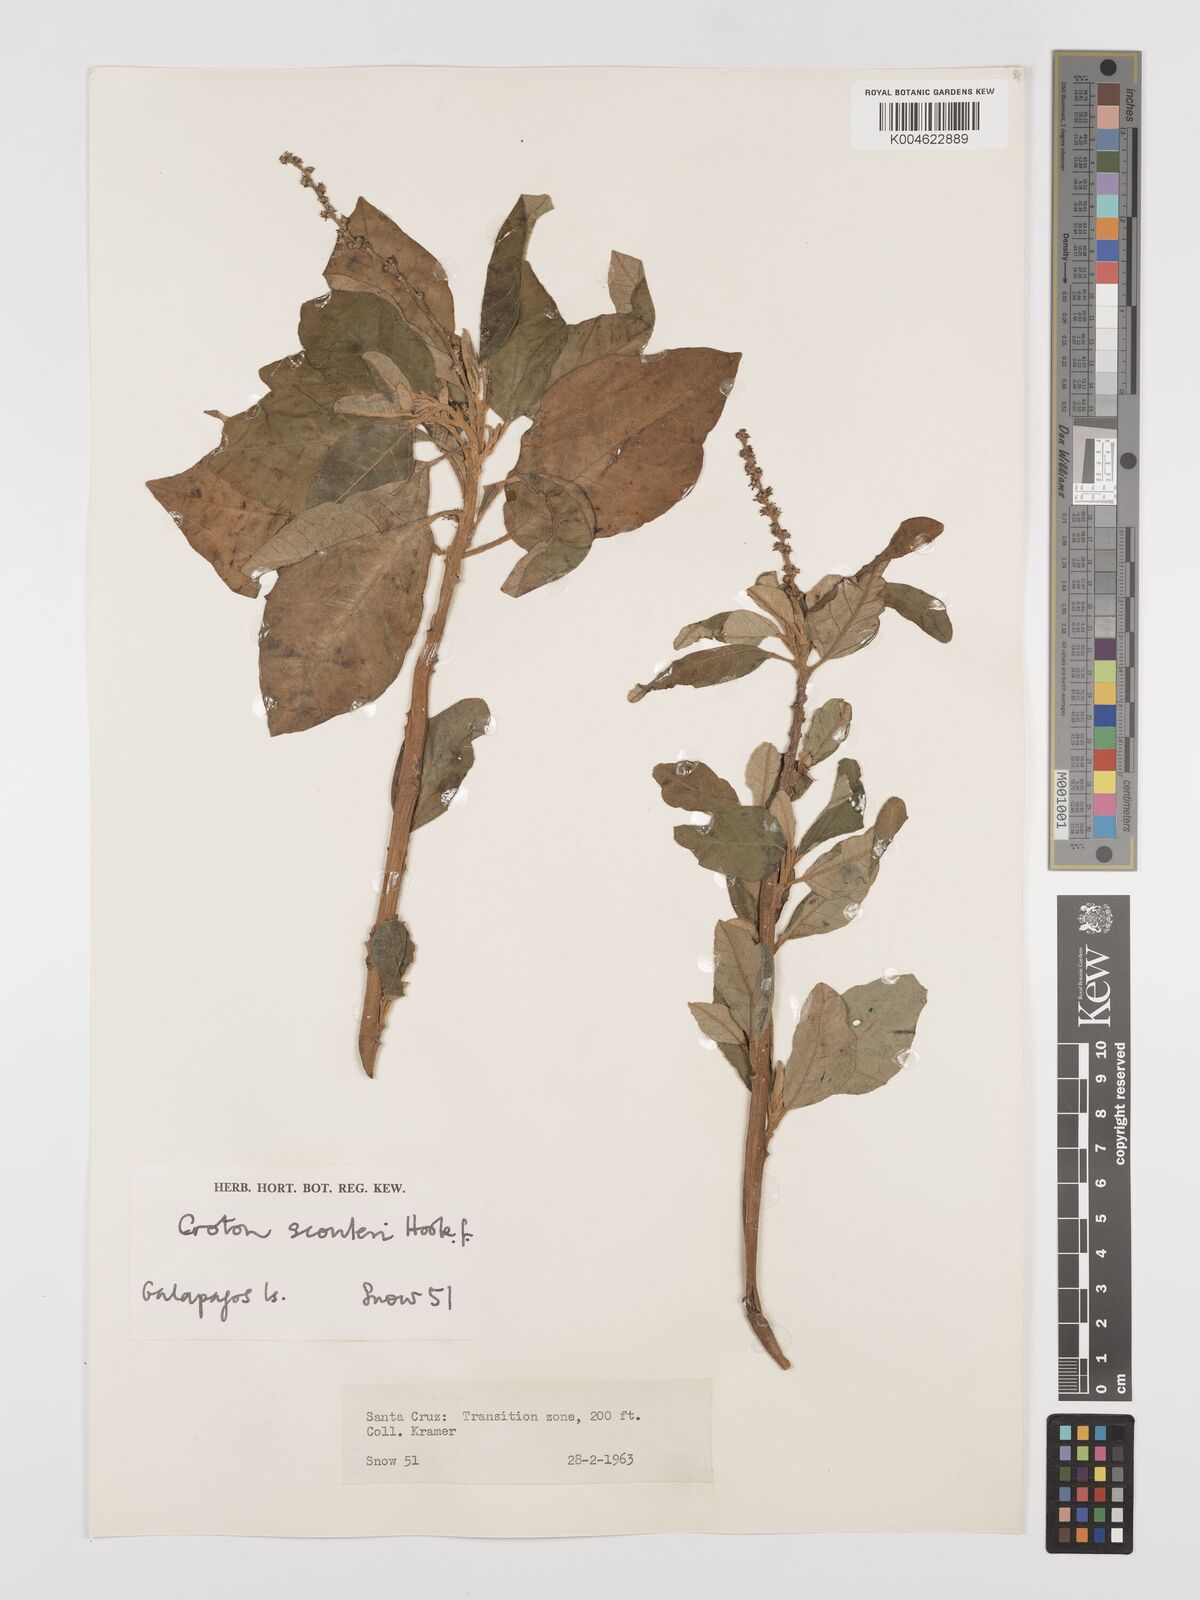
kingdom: Plantae
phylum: Tracheophyta
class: Magnoliopsida
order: Malpighiales
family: Euphorbiaceae
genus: Croton
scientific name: Croton scouleri
